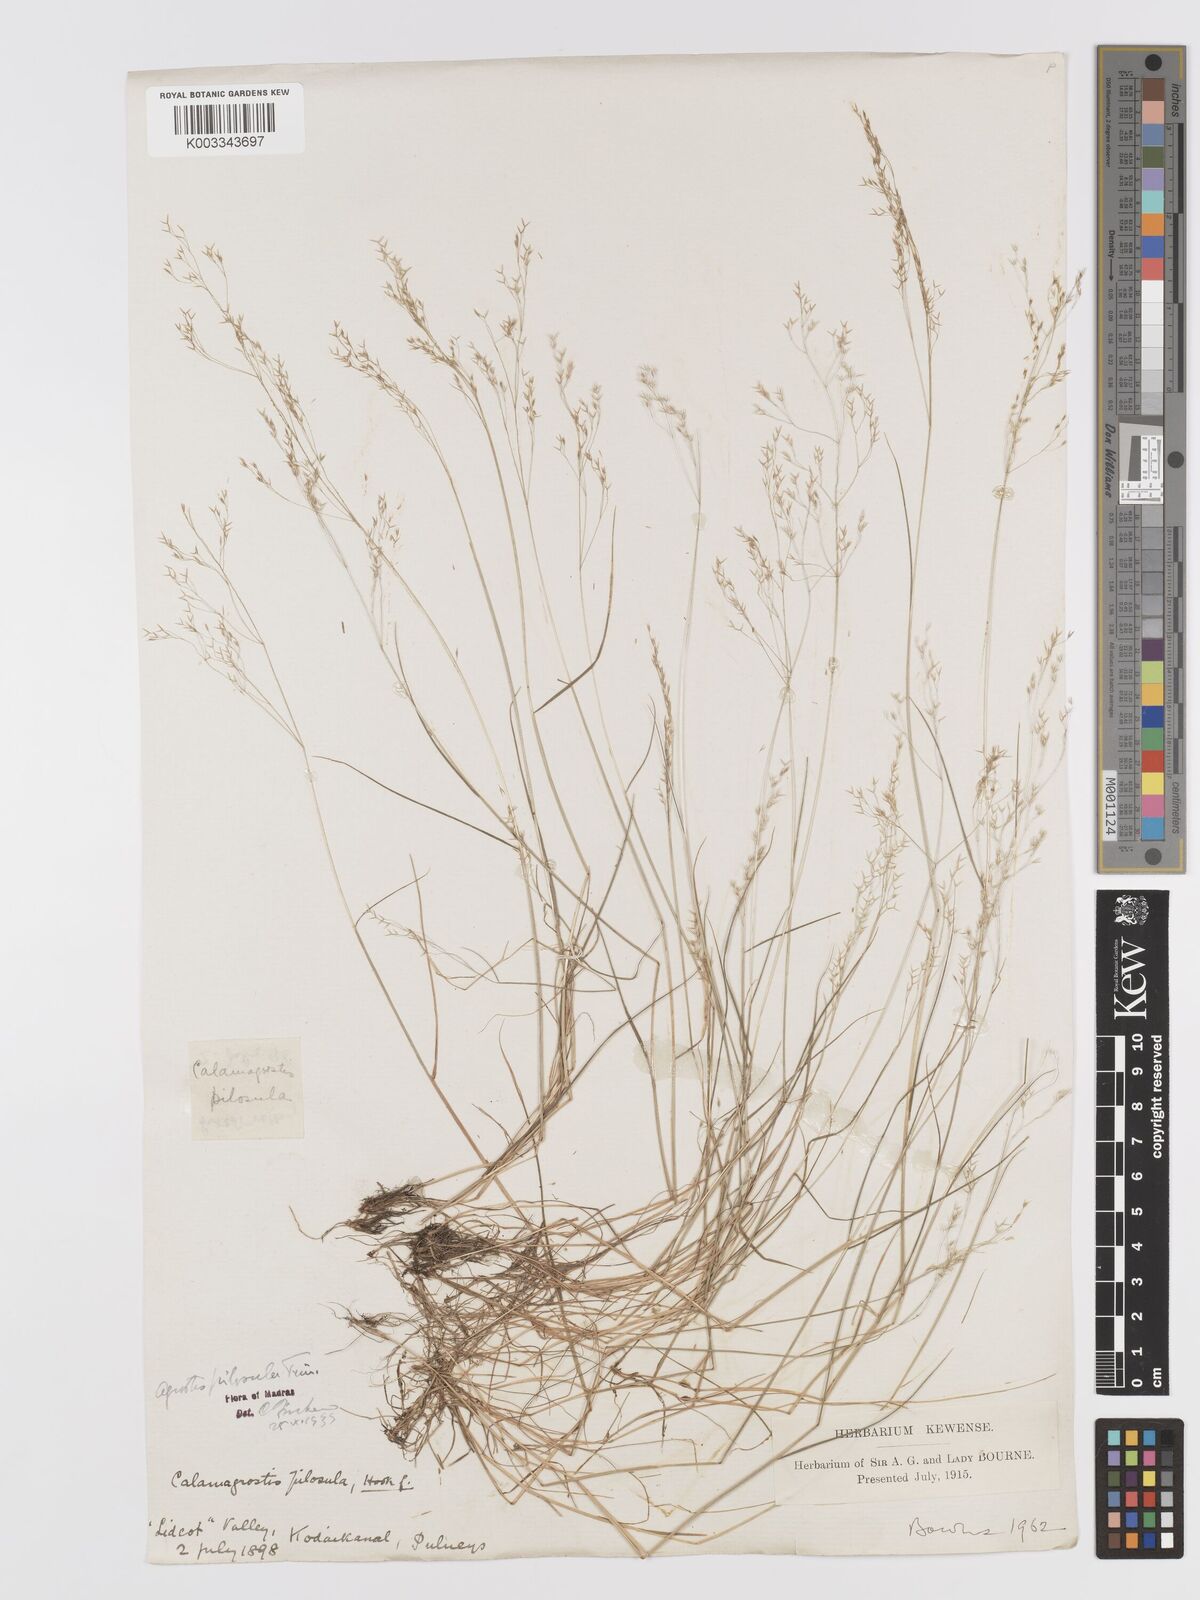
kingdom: Plantae
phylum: Tracheophyta
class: Liliopsida
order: Poales
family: Poaceae
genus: Agrostis
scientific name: Agrostis pilosula
